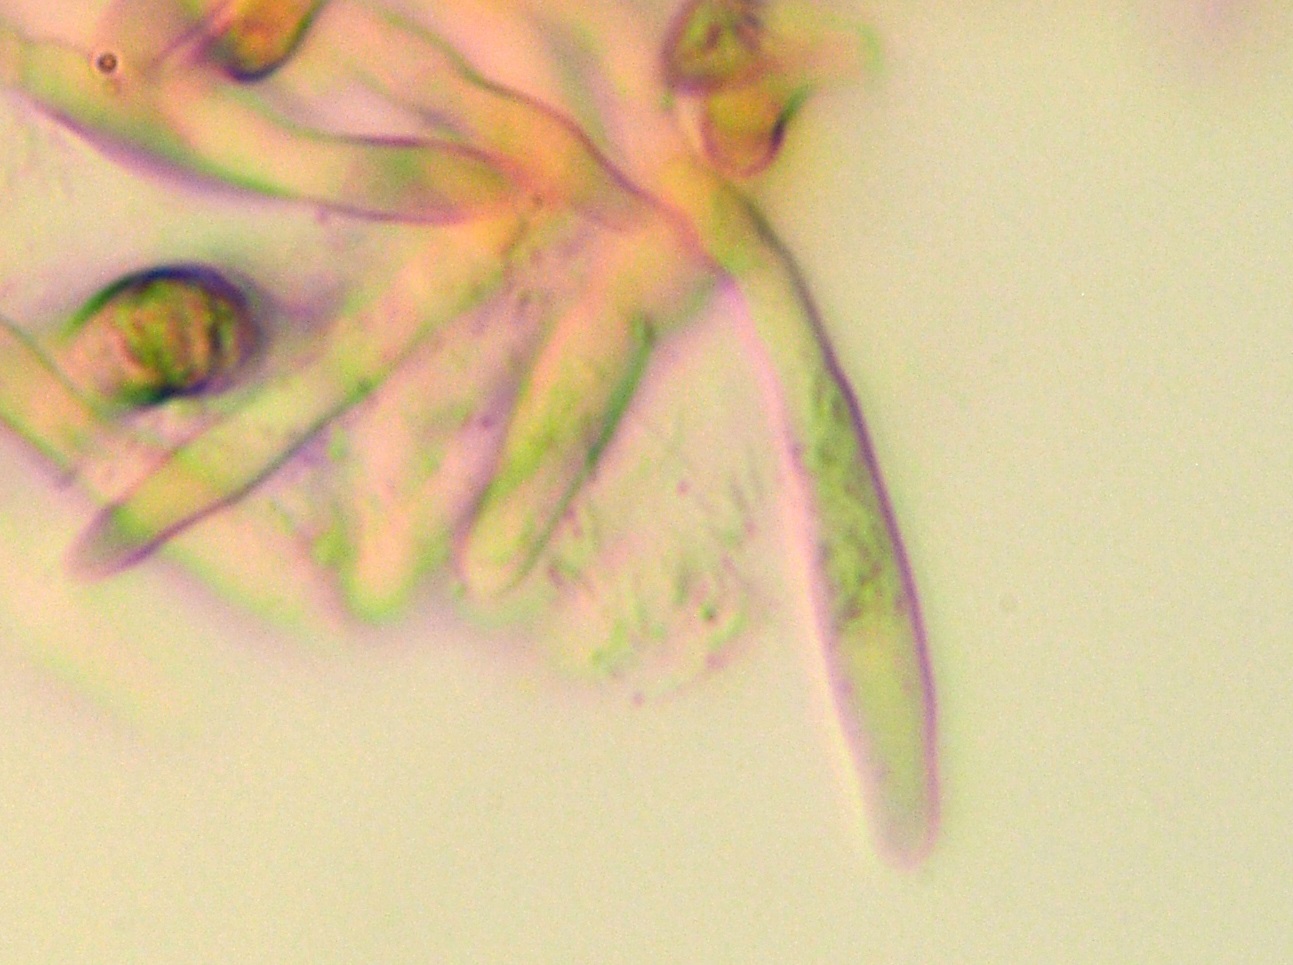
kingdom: Fungi
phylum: Basidiomycota
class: Agaricomycetes
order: Russulales
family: Russulaceae
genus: Russula
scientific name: Russula anatina
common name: ande-skørhat
